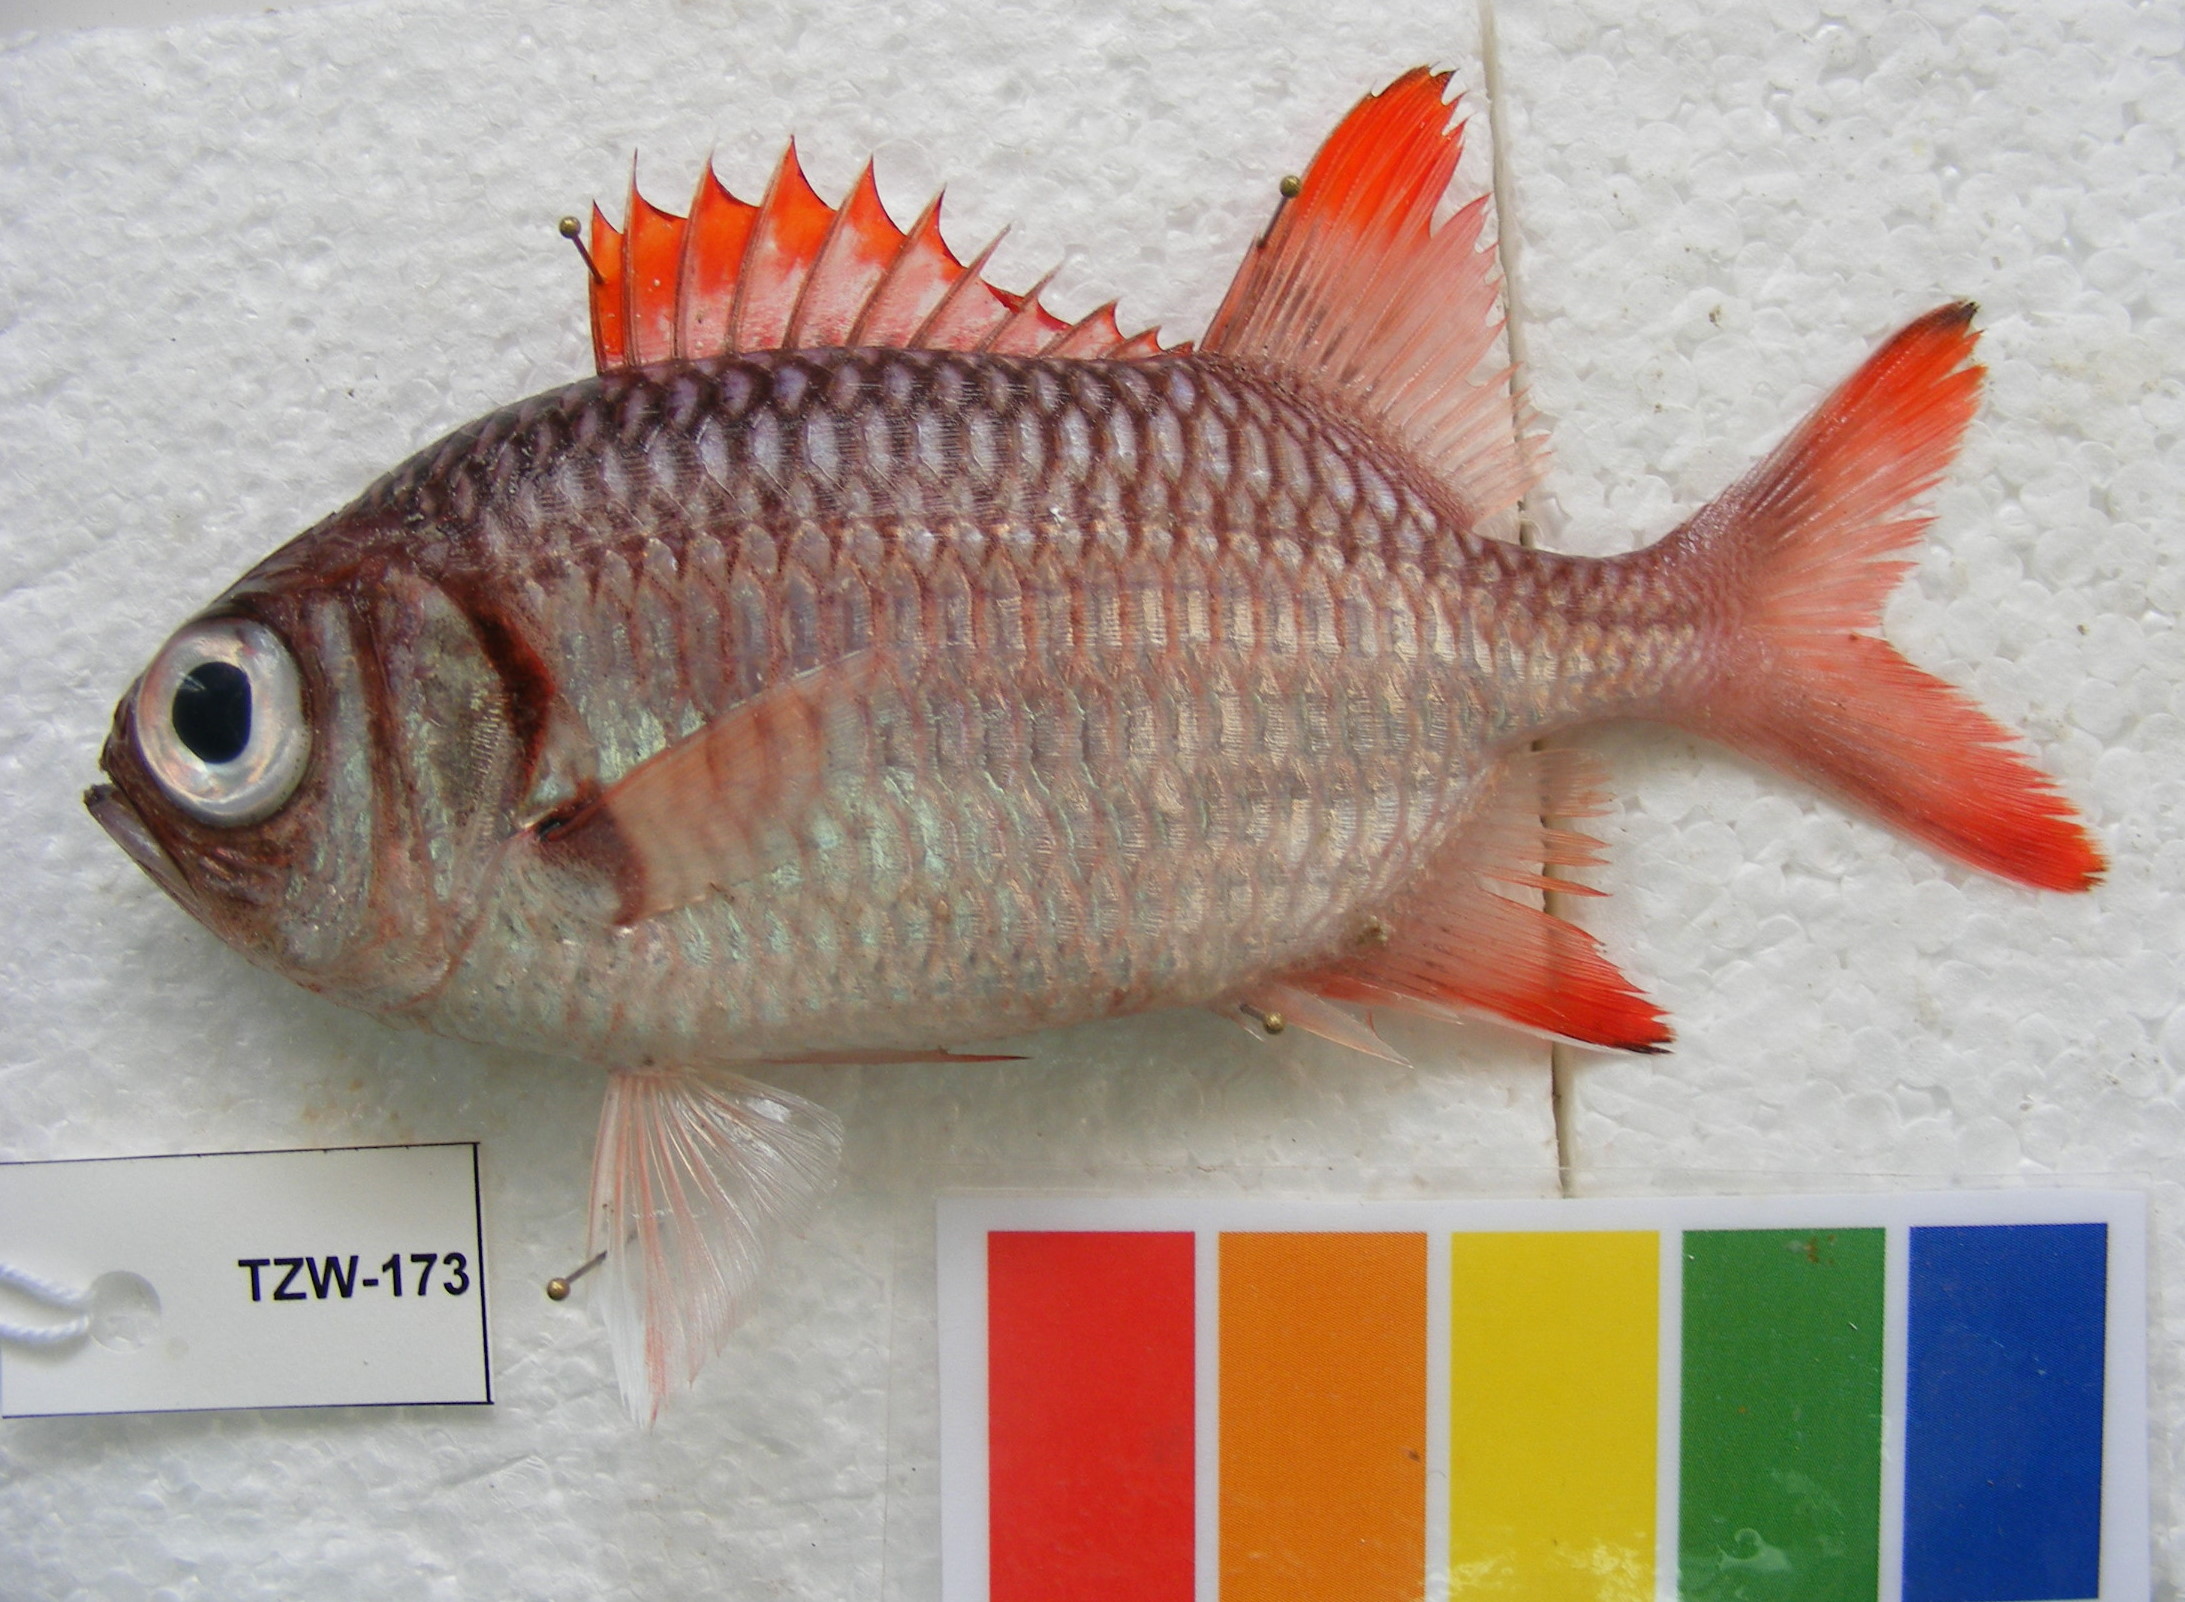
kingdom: Animalia
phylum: Chordata
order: Beryciformes
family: Holocentridae
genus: Myripristis
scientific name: Myripristis violacea
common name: Lattice soldierfish
